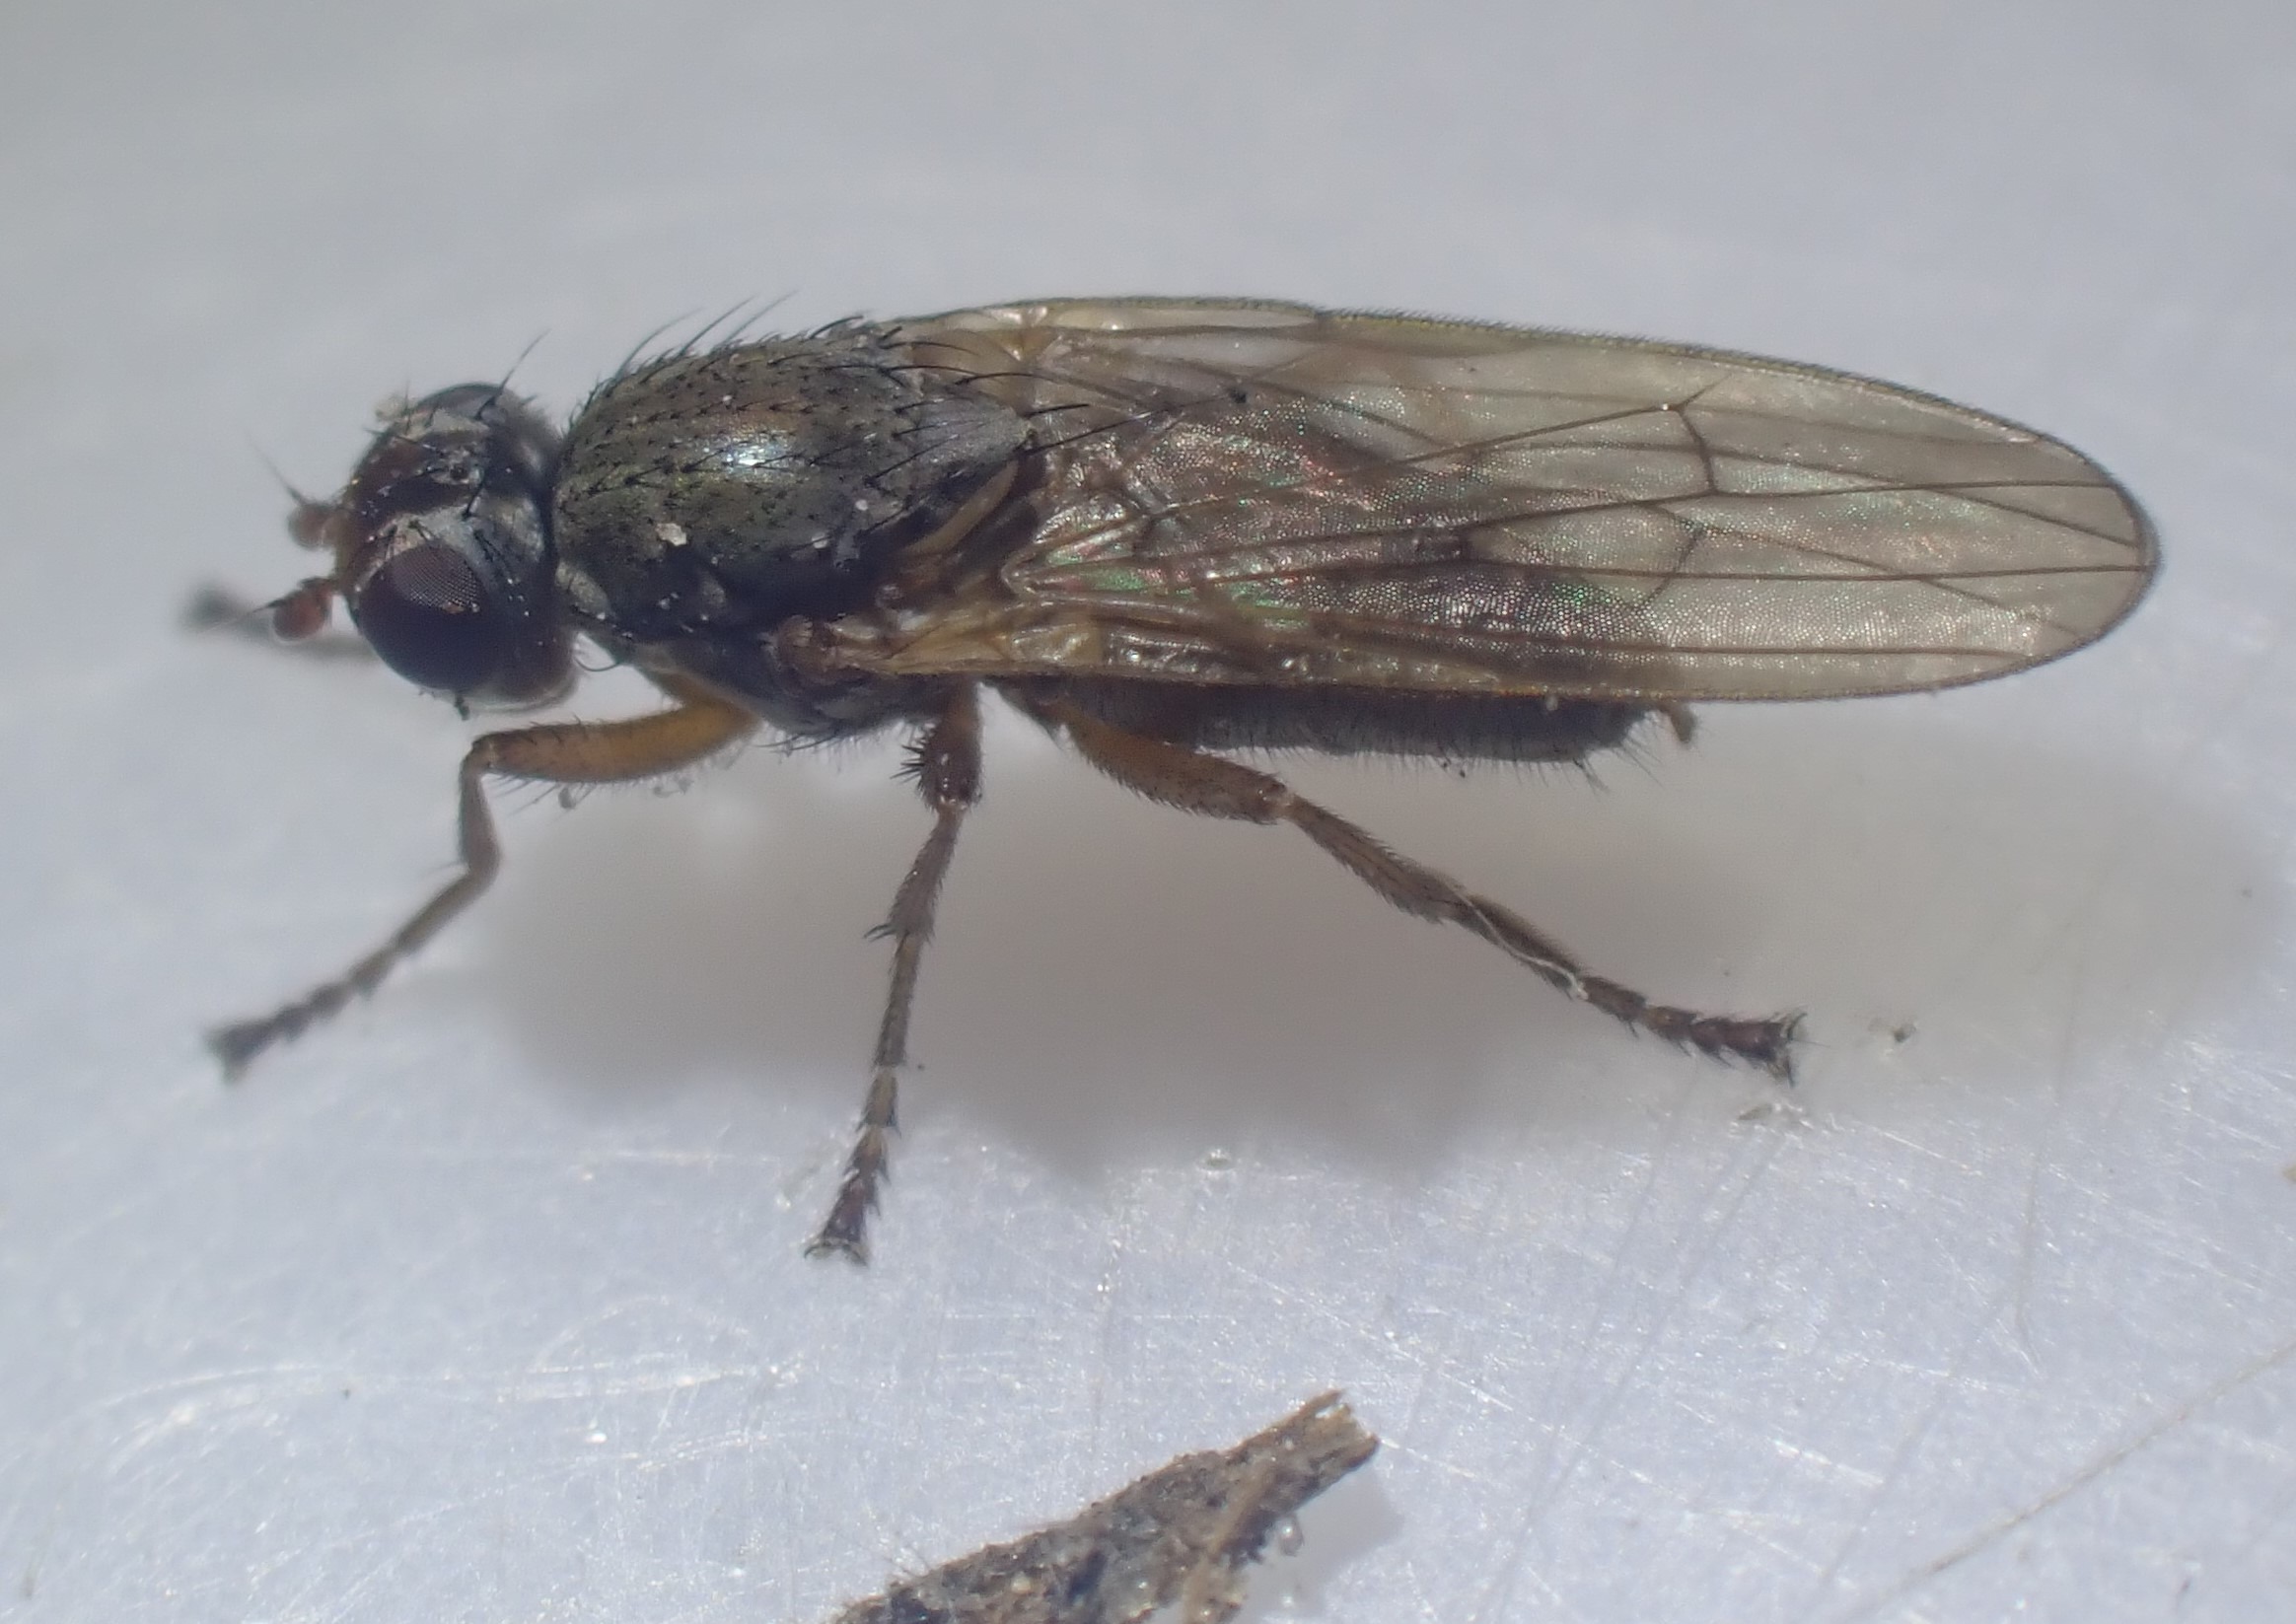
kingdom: Animalia
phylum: Arthropoda
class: Insecta
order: Diptera
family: Heterocheilidae
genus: Heterocheila
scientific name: Heterocheila buccata
